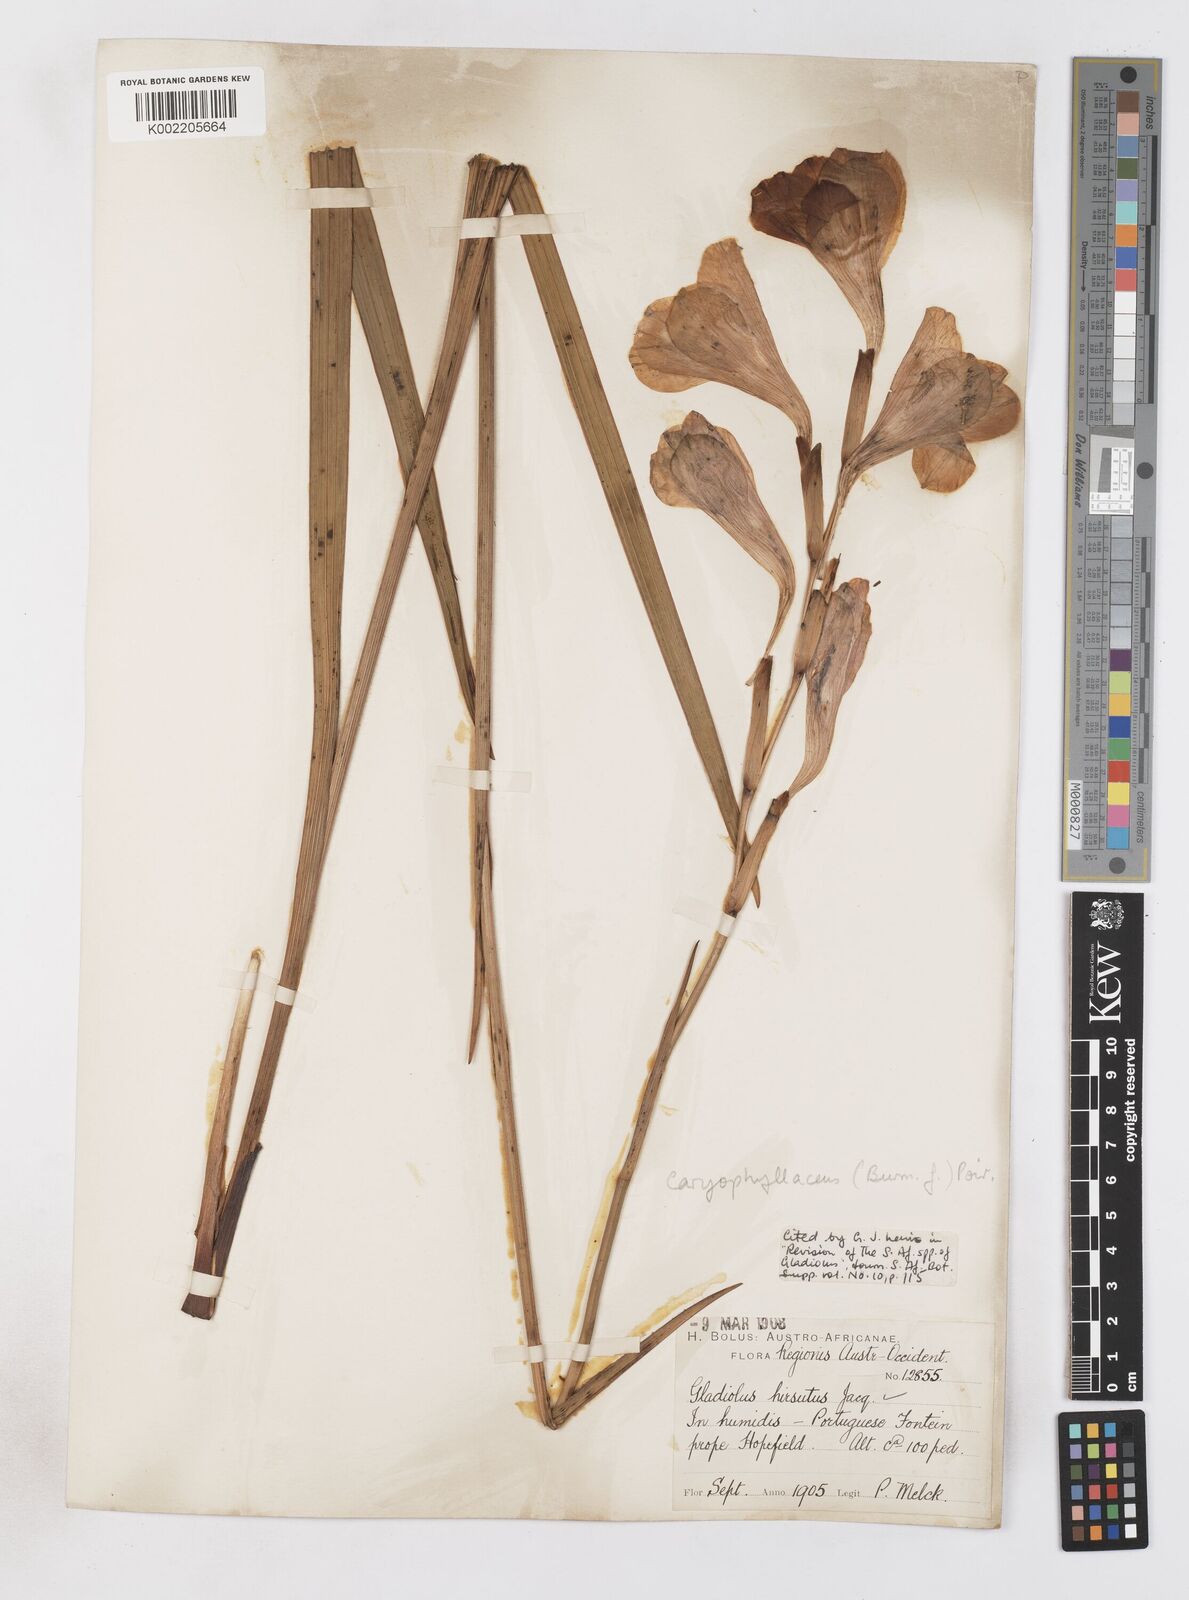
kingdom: Plantae
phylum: Tracheophyta
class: Liliopsida
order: Asparagales
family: Iridaceae
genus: Gladiolus
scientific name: Gladiolus caryophyllaceus
